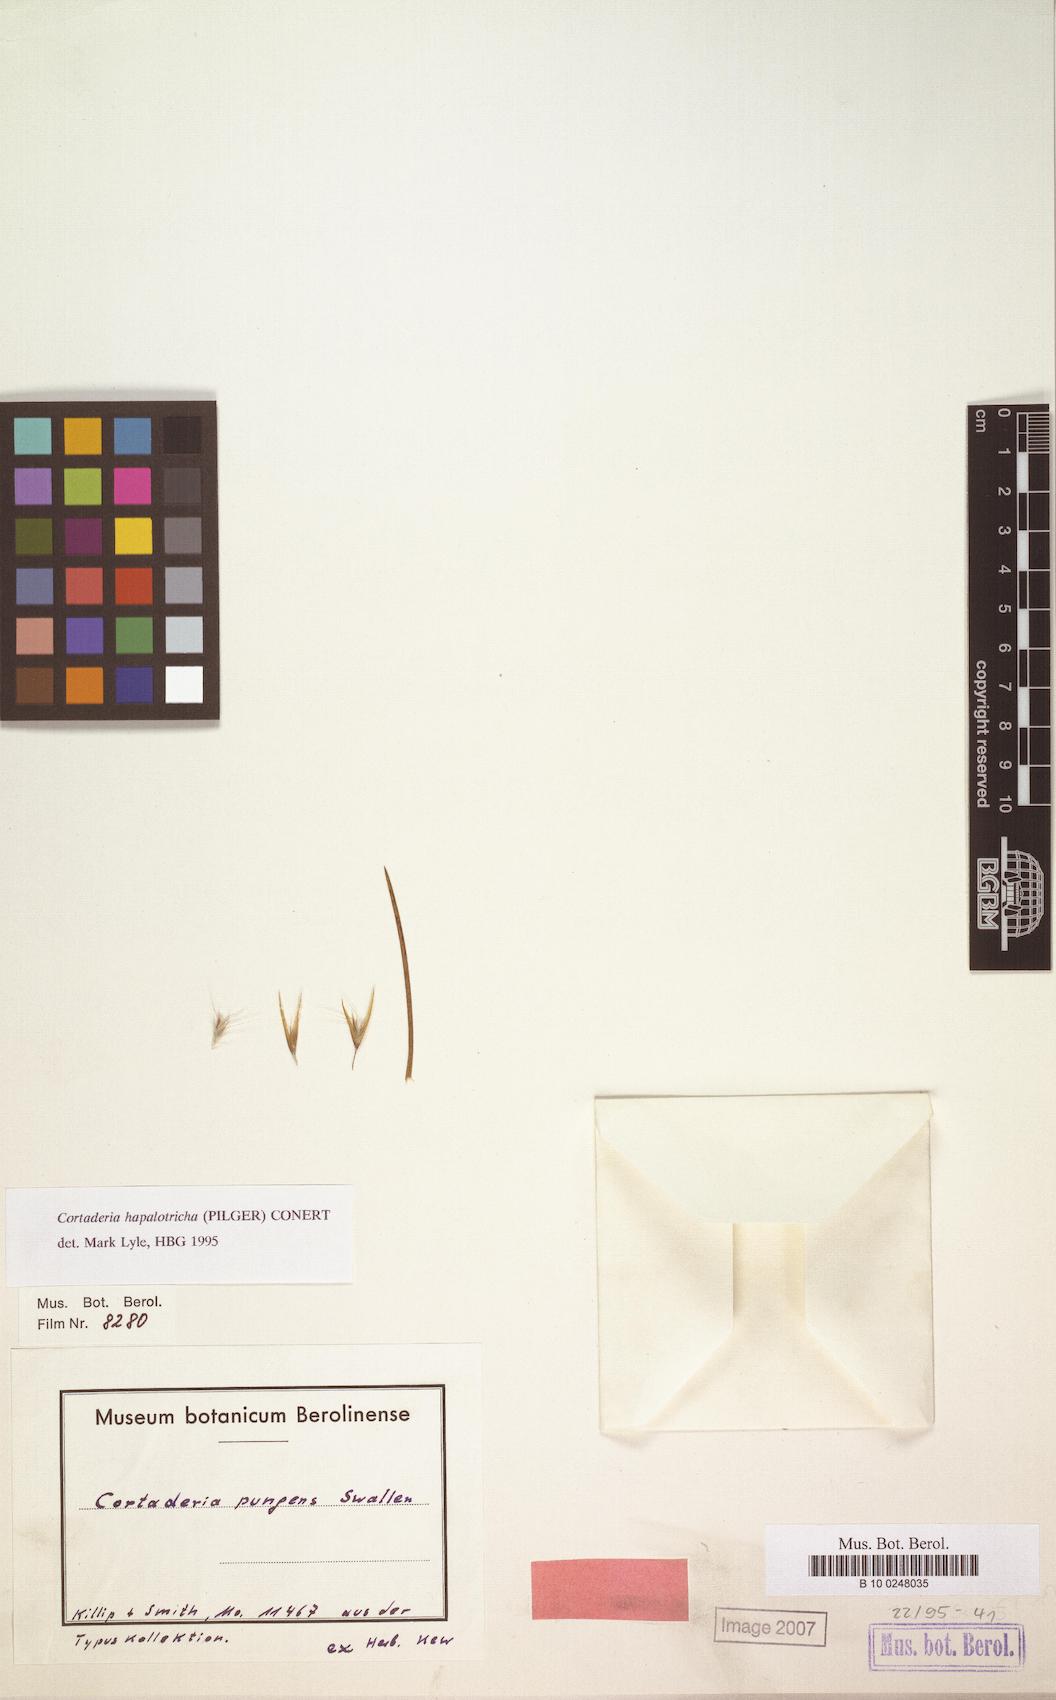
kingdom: Plantae
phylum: Tracheophyta
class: Liliopsida
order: Poales
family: Poaceae
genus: Cortaderia
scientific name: Cortaderia pungens
